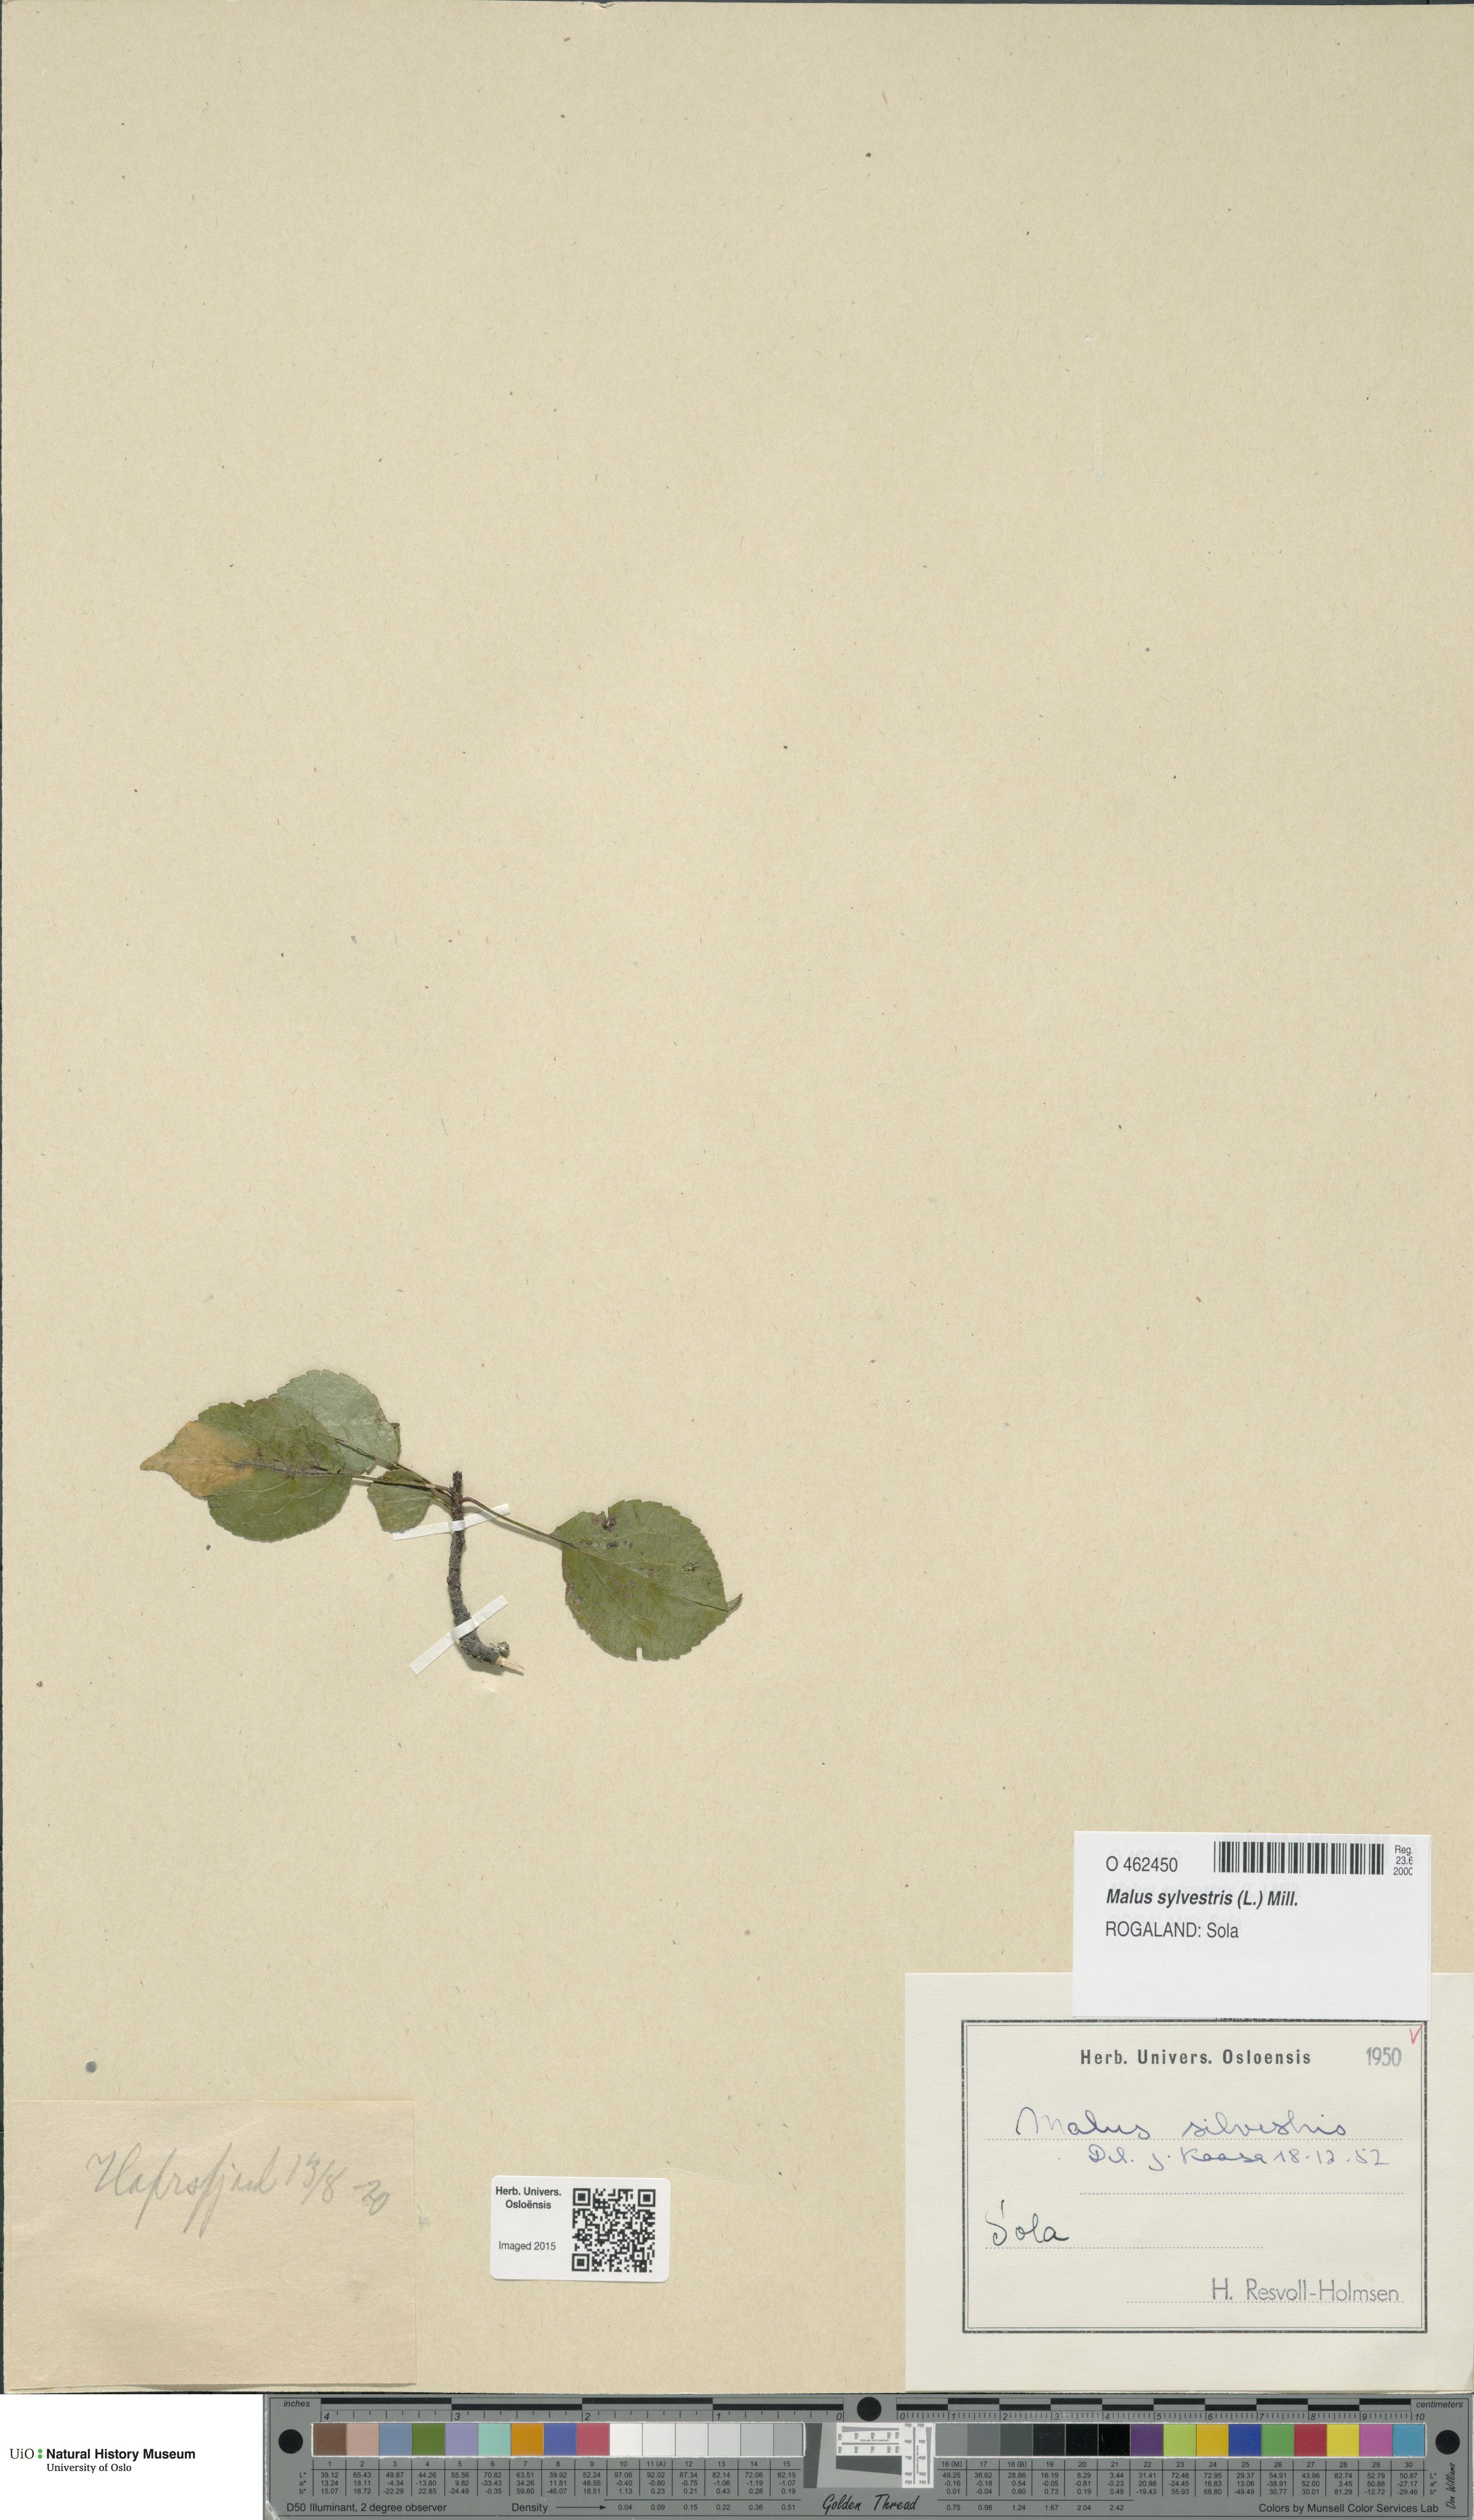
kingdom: Plantae
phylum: Tracheophyta
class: Magnoliopsida
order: Rosales
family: Rosaceae
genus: Malus
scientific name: Malus sylvestris
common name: Crab apple
